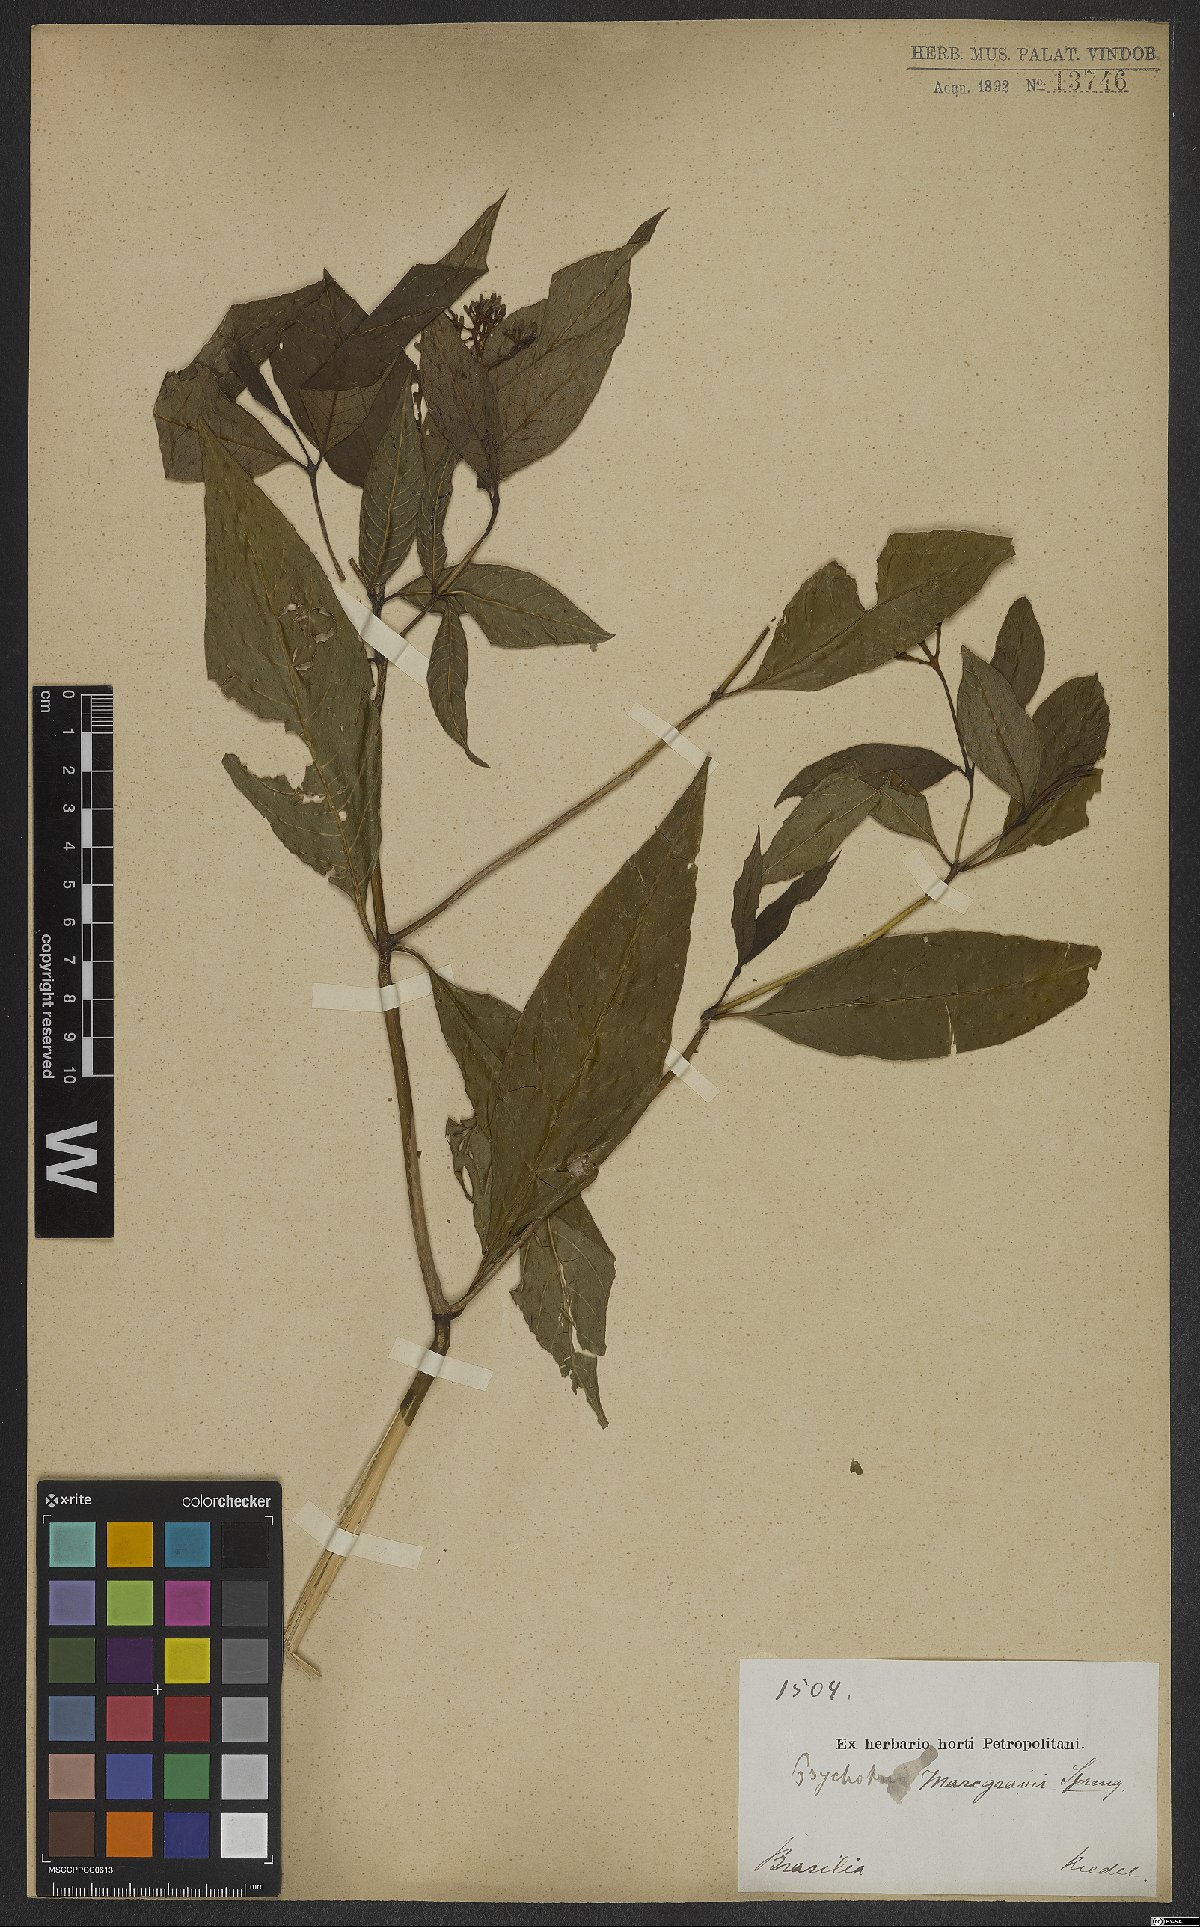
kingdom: Plantae
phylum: Tracheophyta
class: Magnoliopsida
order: Gentianales
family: Rubiaceae
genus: Palicourea
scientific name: Palicourea marcgravii
